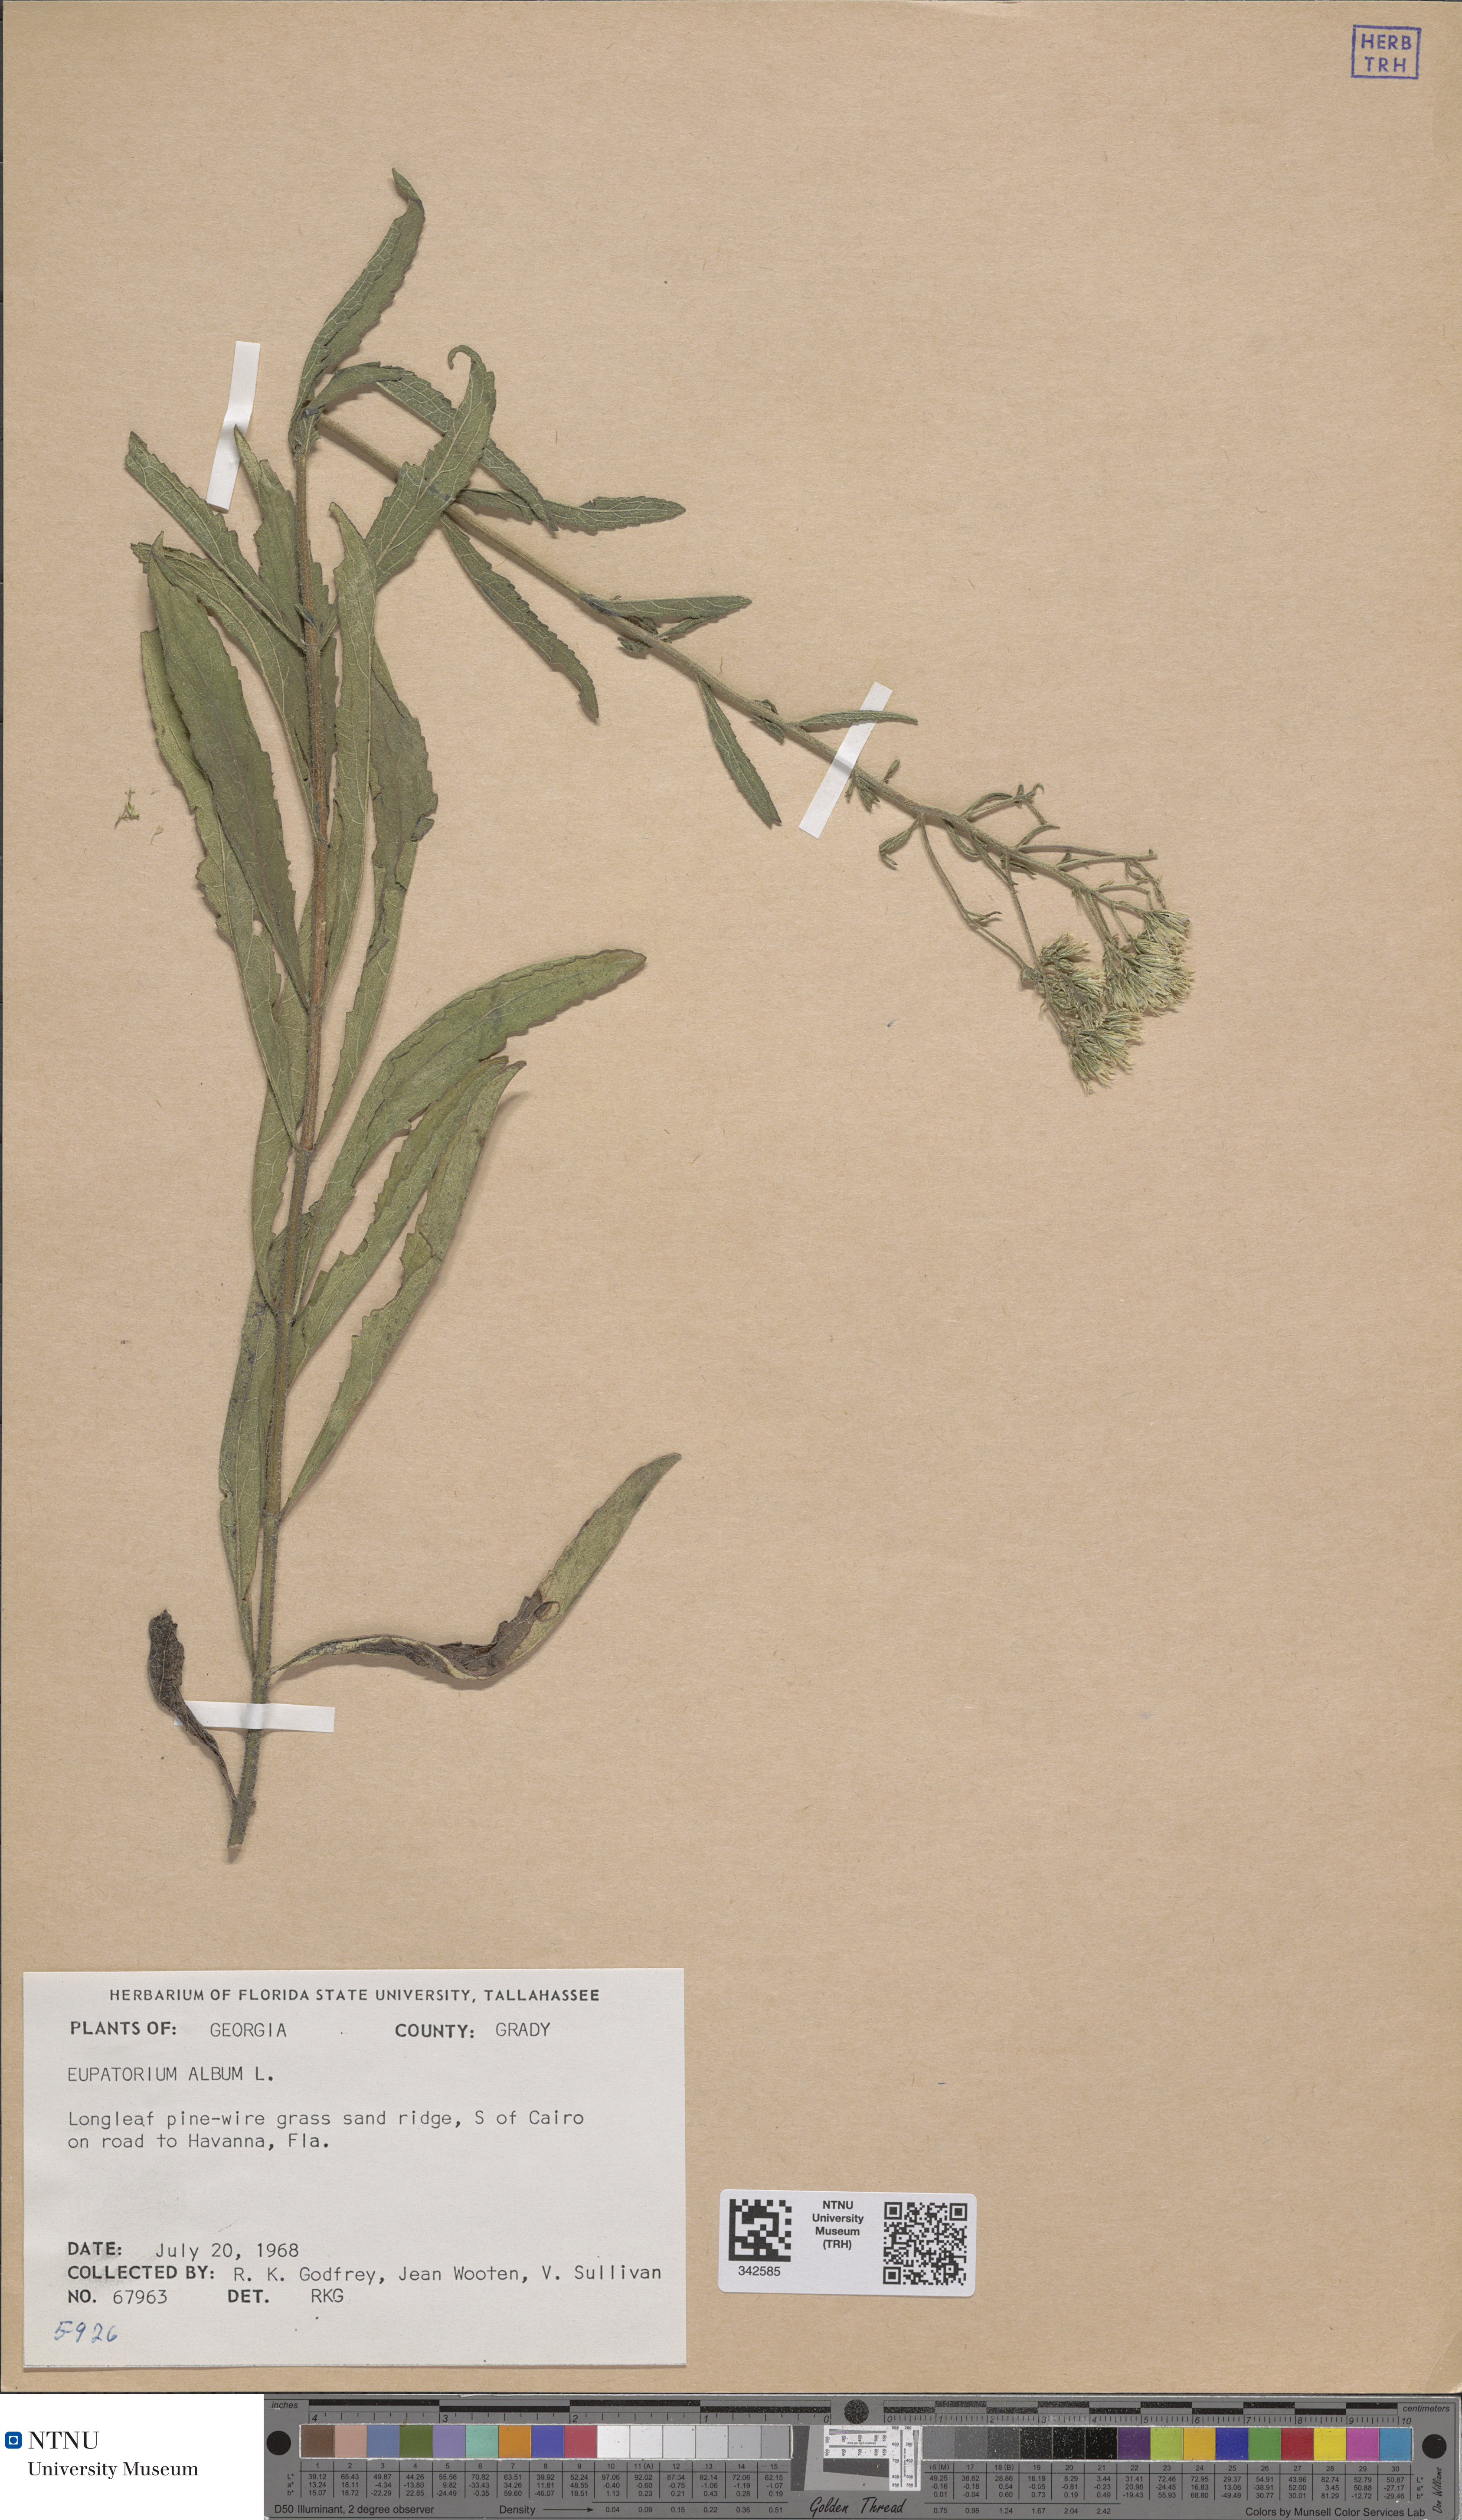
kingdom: Plantae
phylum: Tracheophyta
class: Magnoliopsida
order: Asterales
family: Asteraceae
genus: Eupatorium
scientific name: Eupatorium album
